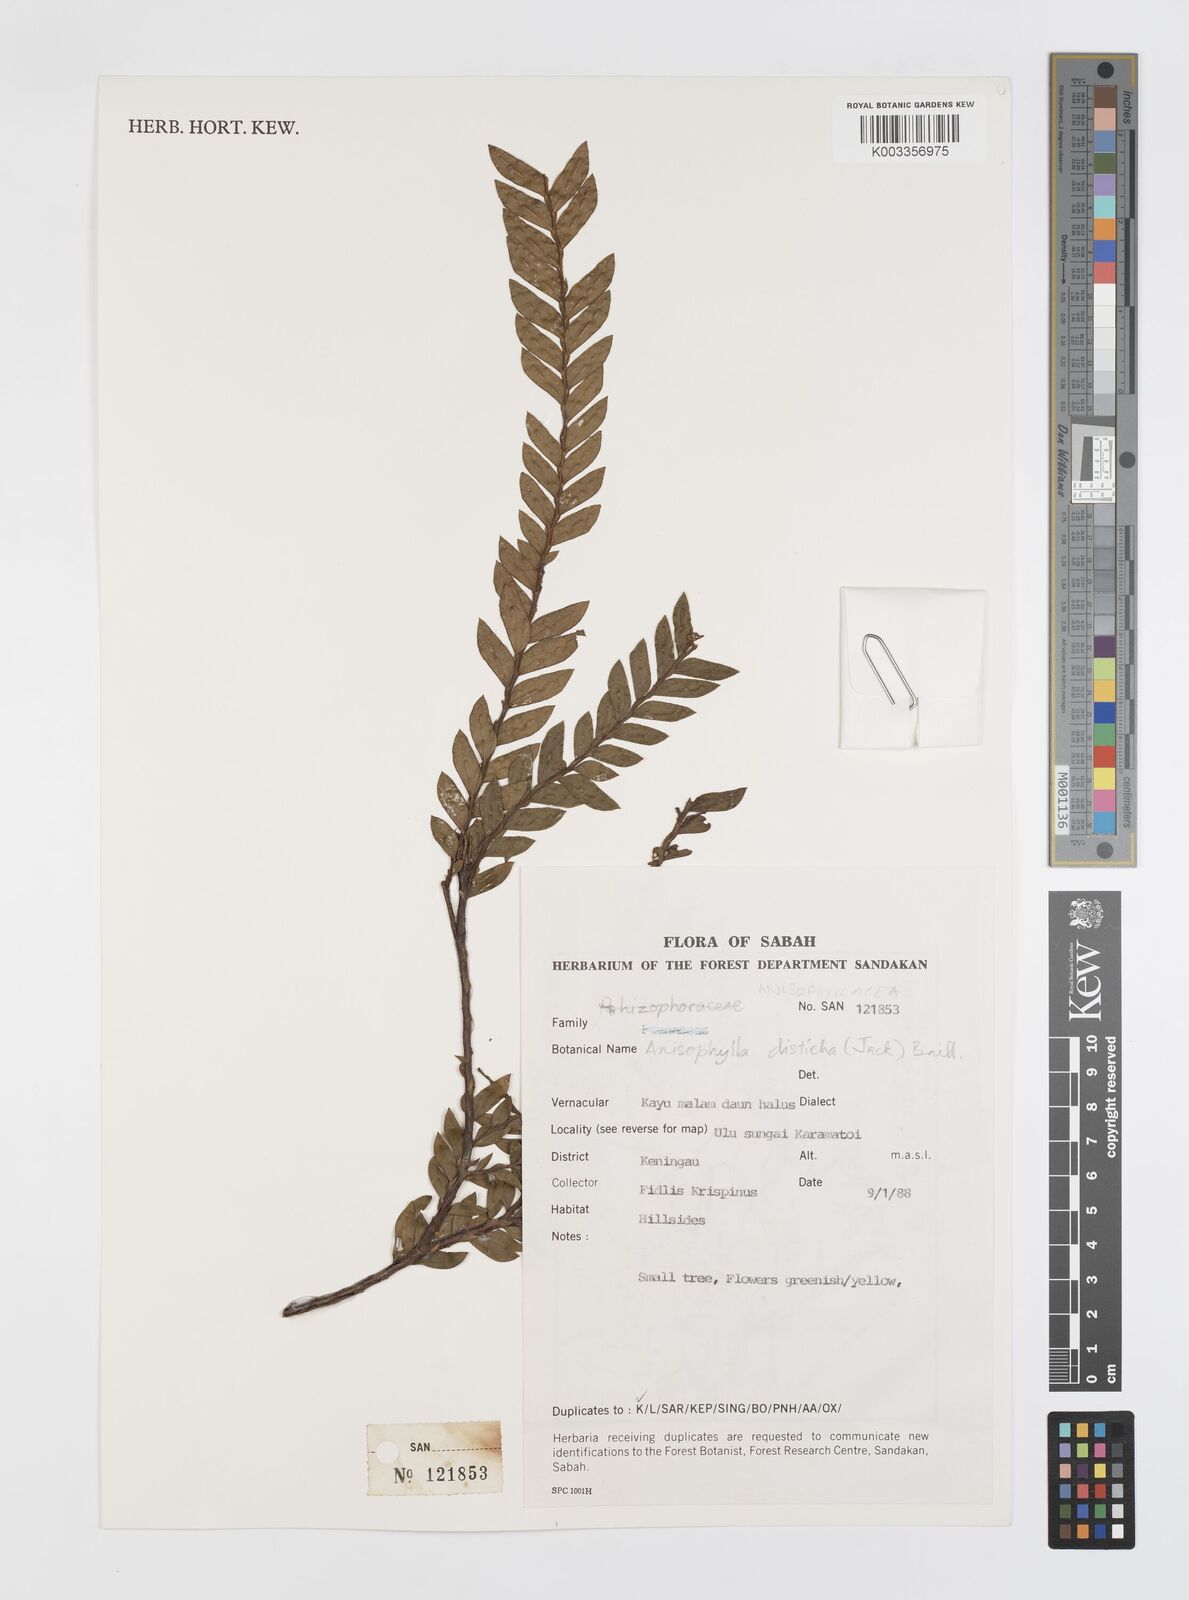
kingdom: Plantae
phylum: Tracheophyta
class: Magnoliopsida
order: Cucurbitales
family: Anisophylleaceae
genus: Anisophyllea
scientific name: Anisophyllea disticha
